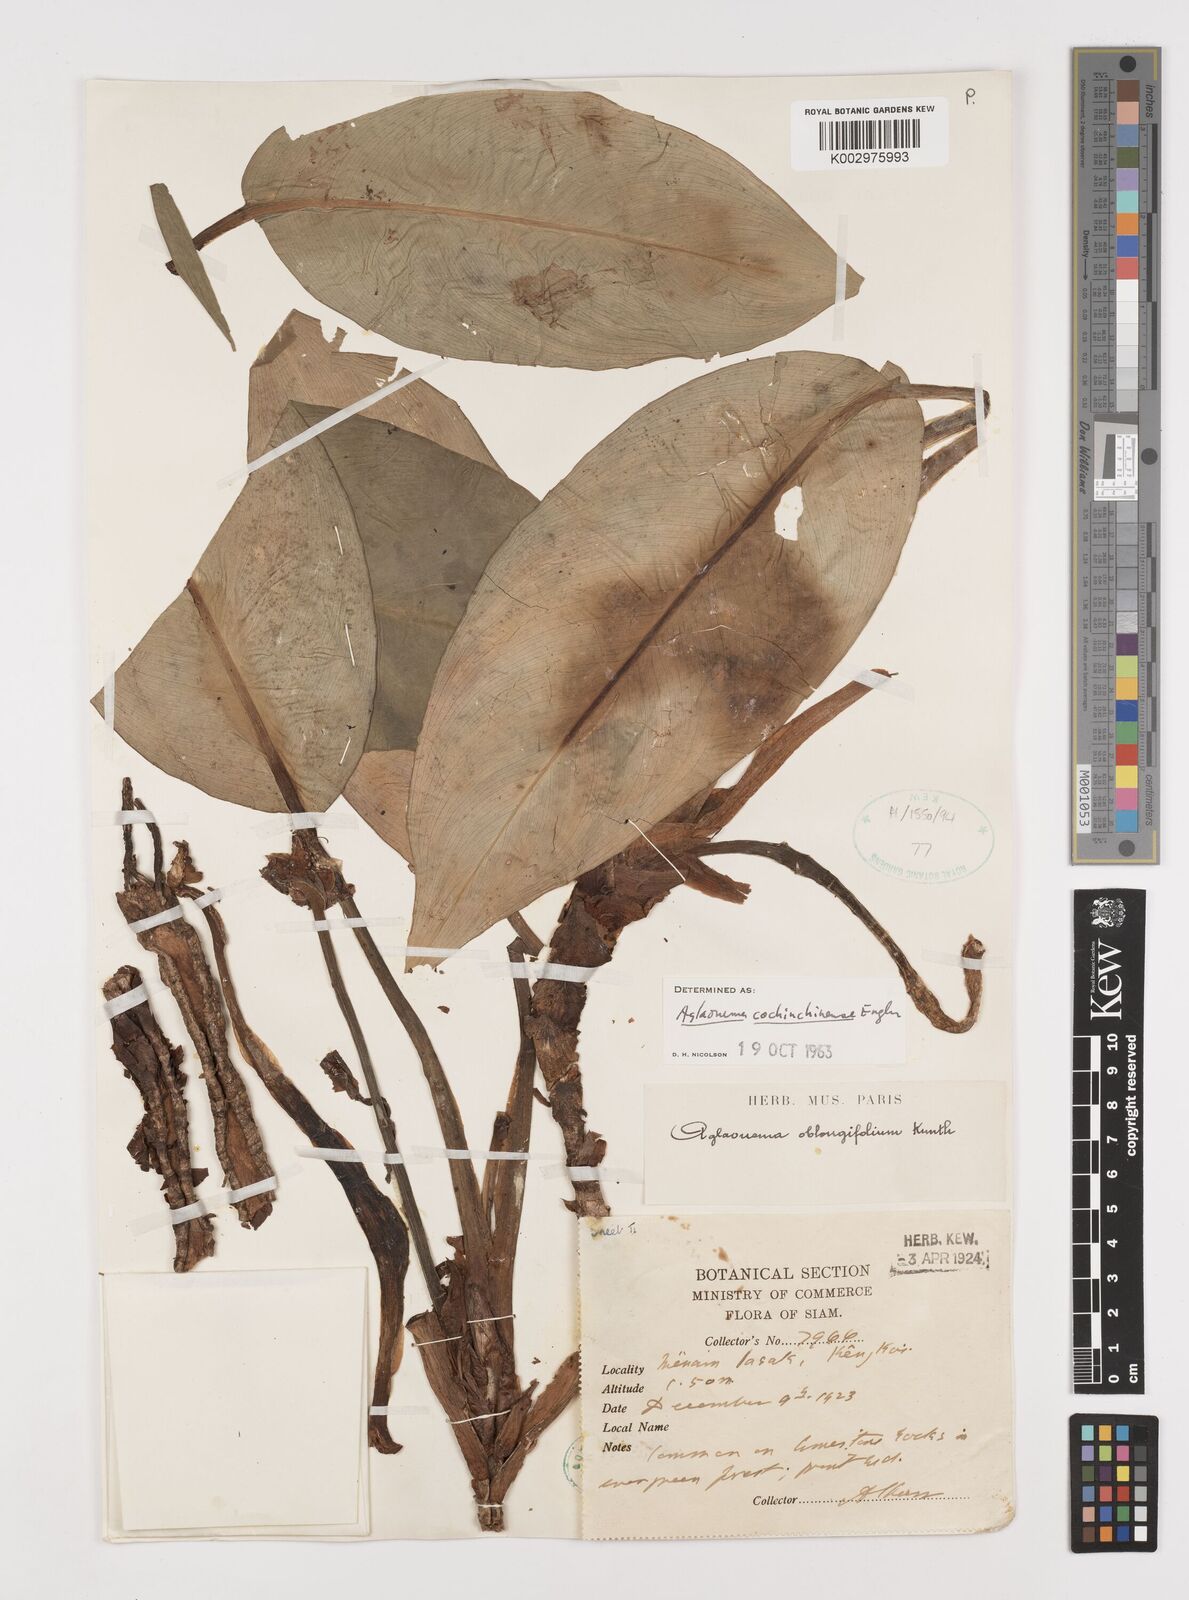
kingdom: Plantae
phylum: Tracheophyta
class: Liliopsida
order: Alismatales
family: Araceae
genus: Aglaonema
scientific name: Aglaonema cochinchinense
